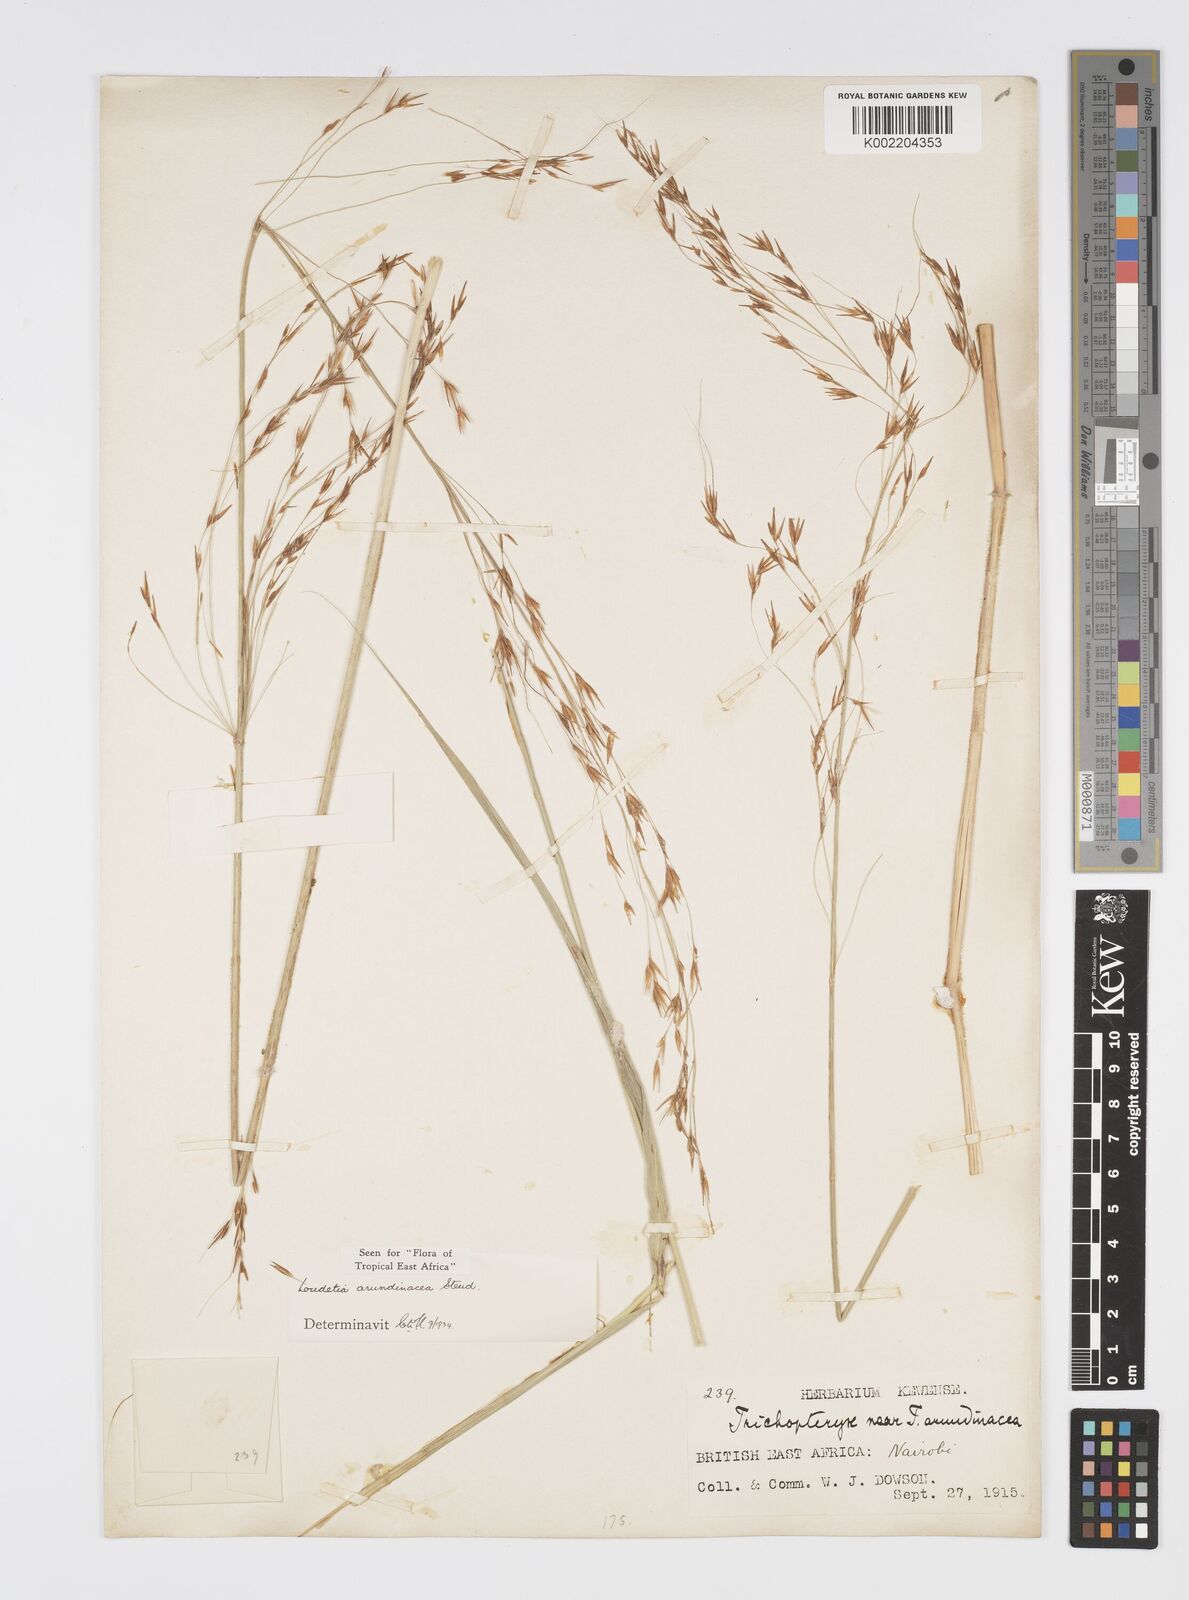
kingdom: Plantae
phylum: Tracheophyta
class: Liliopsida
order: Poales
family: Poaceae
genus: Loudetia
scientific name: Loudetia arundinacea
